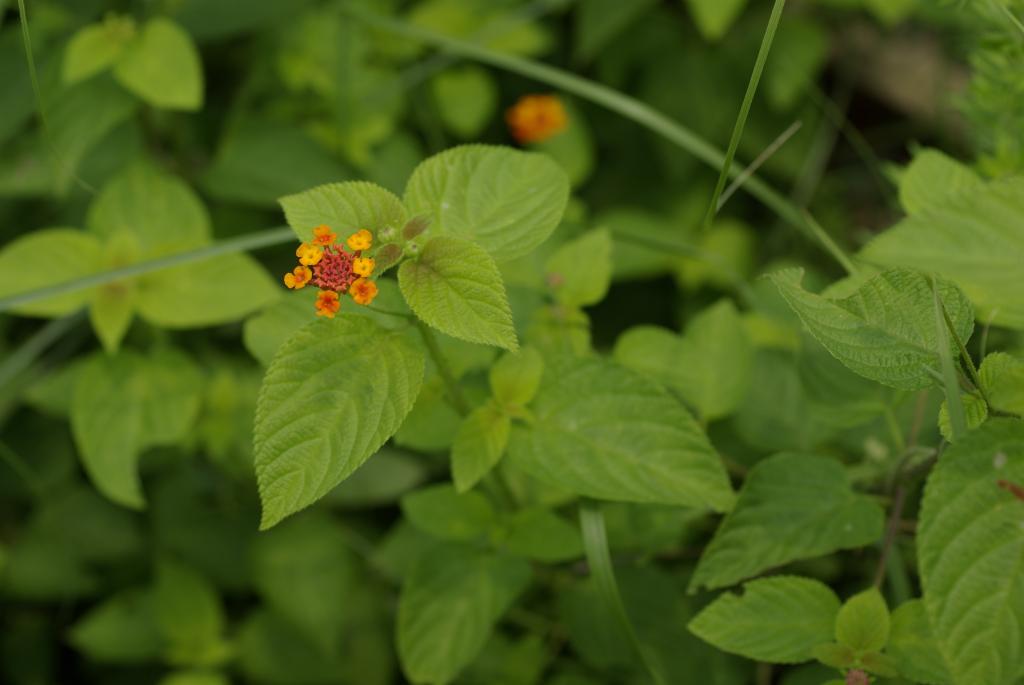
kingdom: Plantae
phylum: Tracheophyta
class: Magnoliopsida
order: Lamiales
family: Verbenaceae
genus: Lantana
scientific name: Lantana camara
